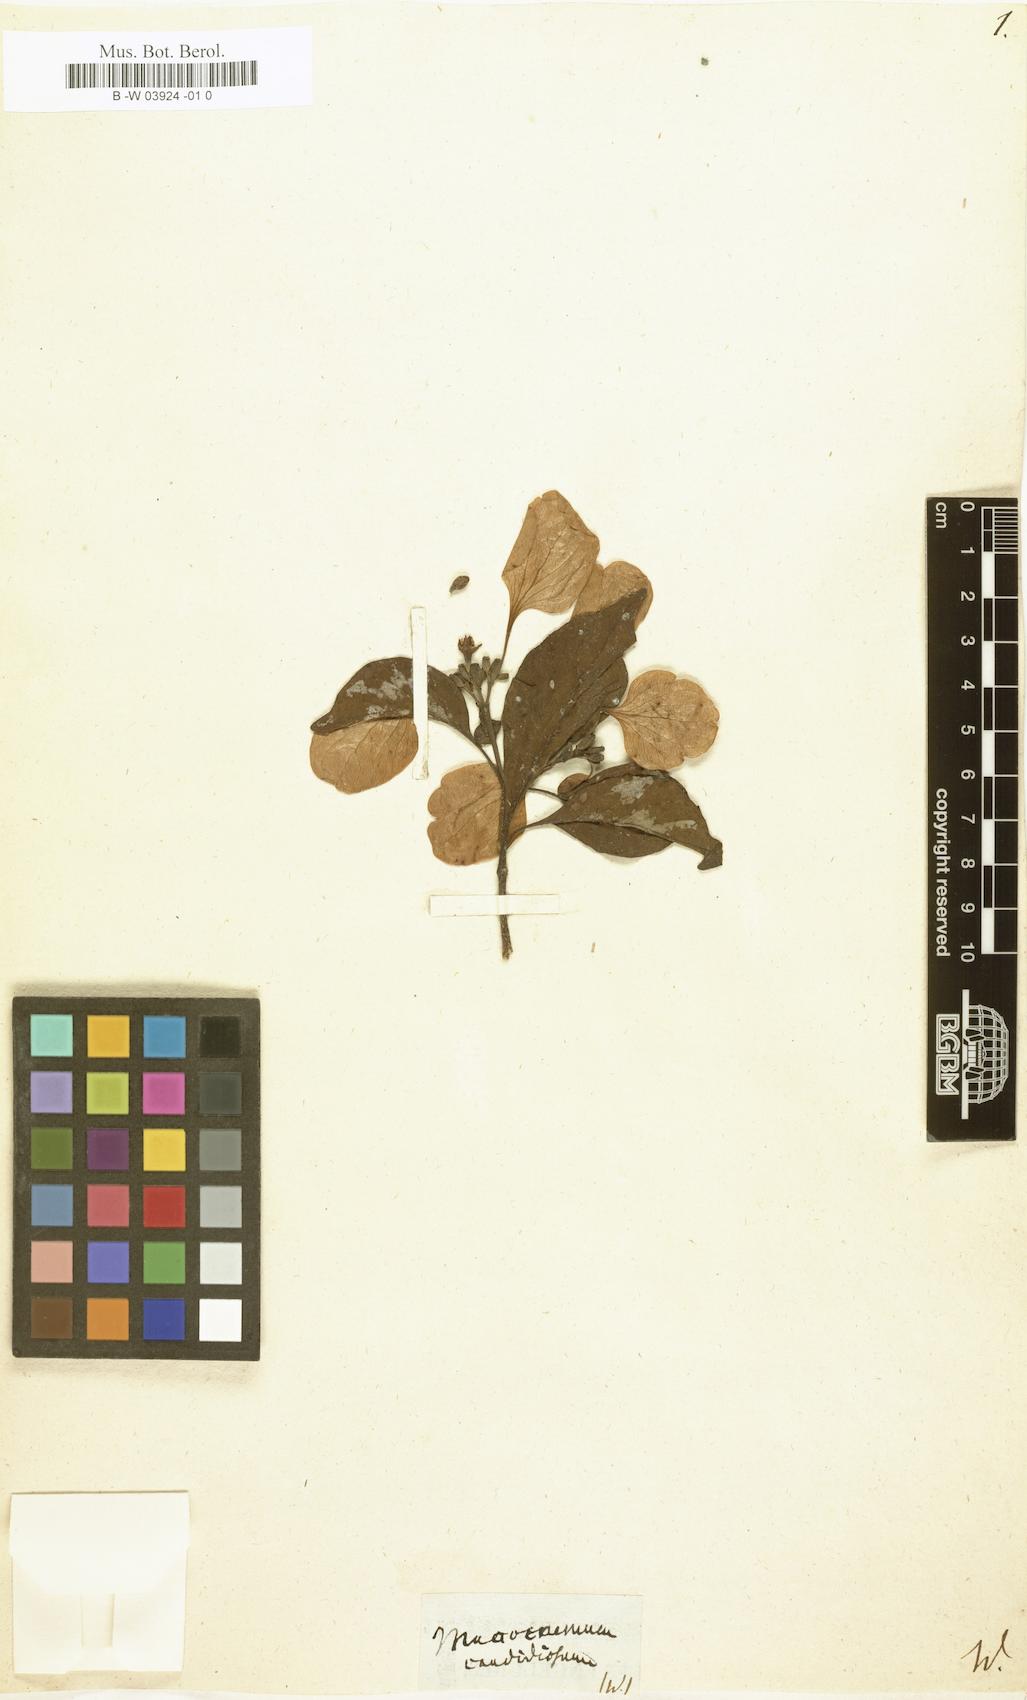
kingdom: Plantae
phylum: Tracheophyta
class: Magnoliopsida
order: Gentianales
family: Rubiaceae
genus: Calycophyllum
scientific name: Calycophyllum candidissimum
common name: Dagame
